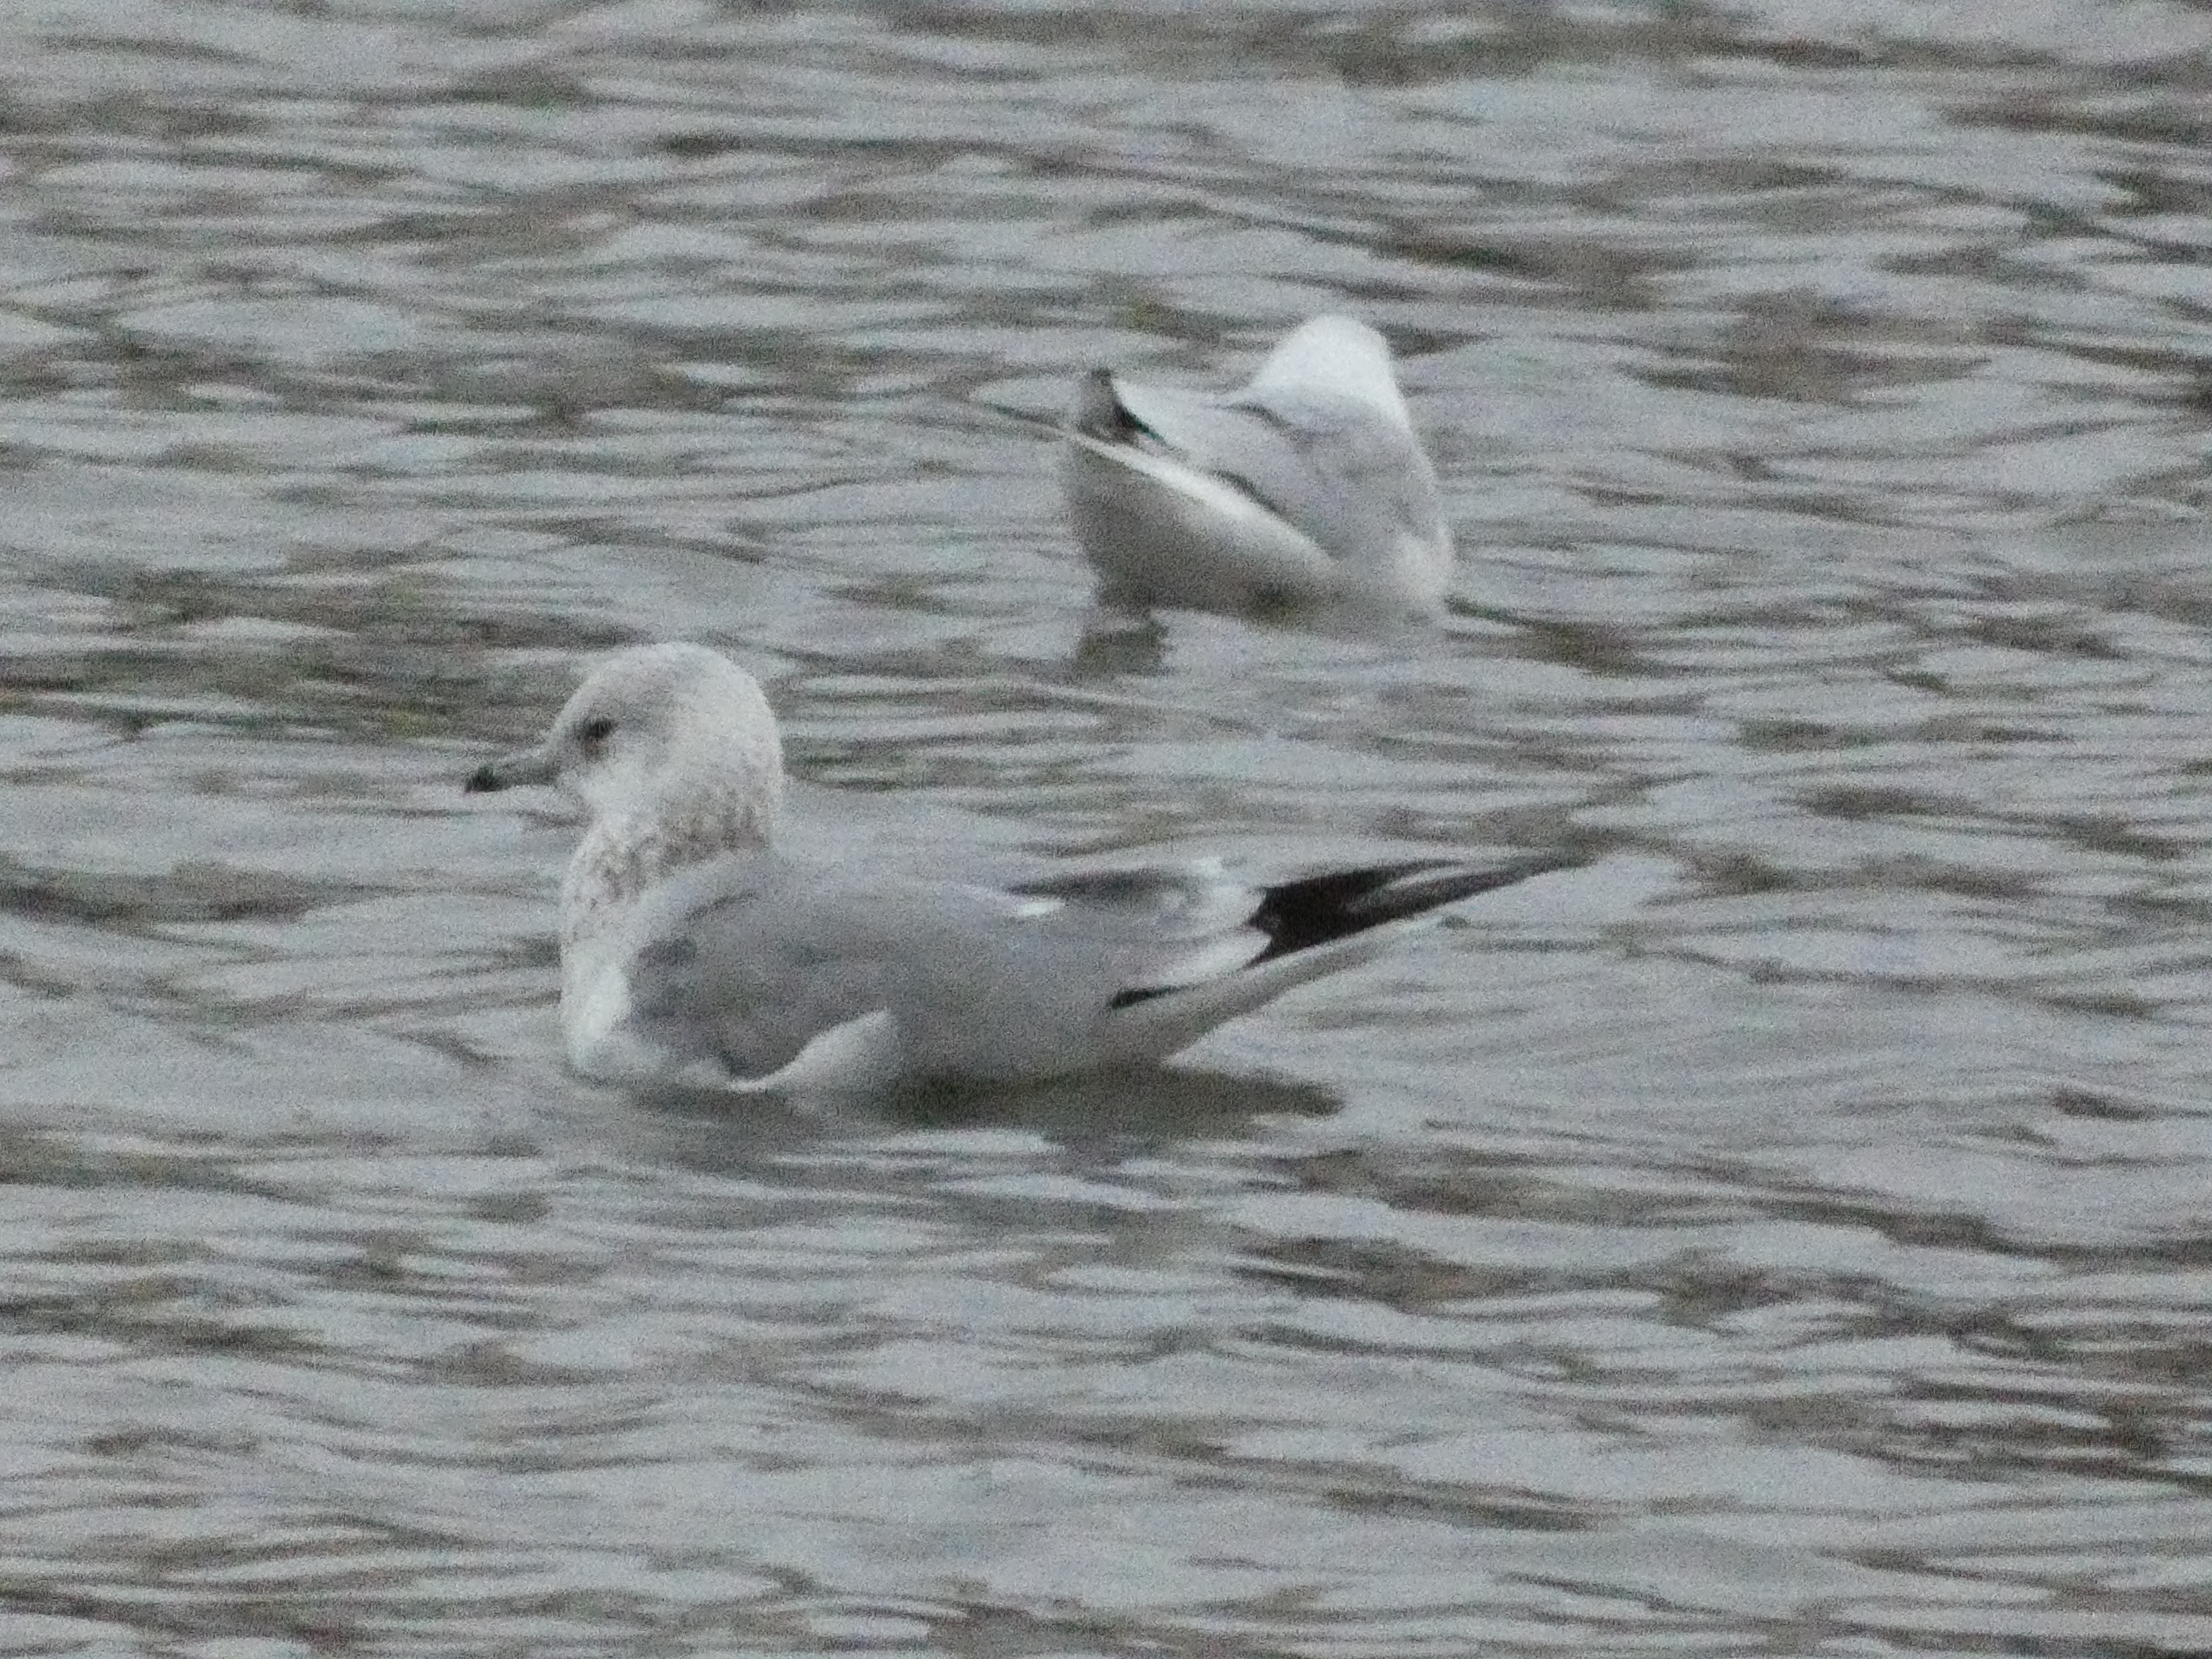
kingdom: Animalia
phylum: Chordata
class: Aves
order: Charadriiformes
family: Laridae
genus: Larus
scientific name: Larus canus
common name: Stormmåge
